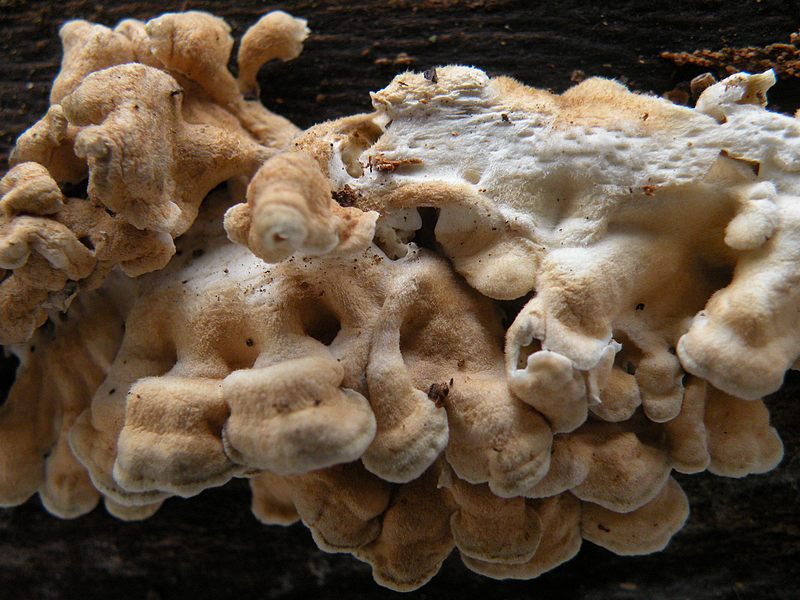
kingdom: Fungi
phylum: Basidiomycota
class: Agaricomycetes
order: Amylocorticiales
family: Amylocorticiaceae
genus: Plicaturopsis
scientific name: Plicaturopsis crispa
